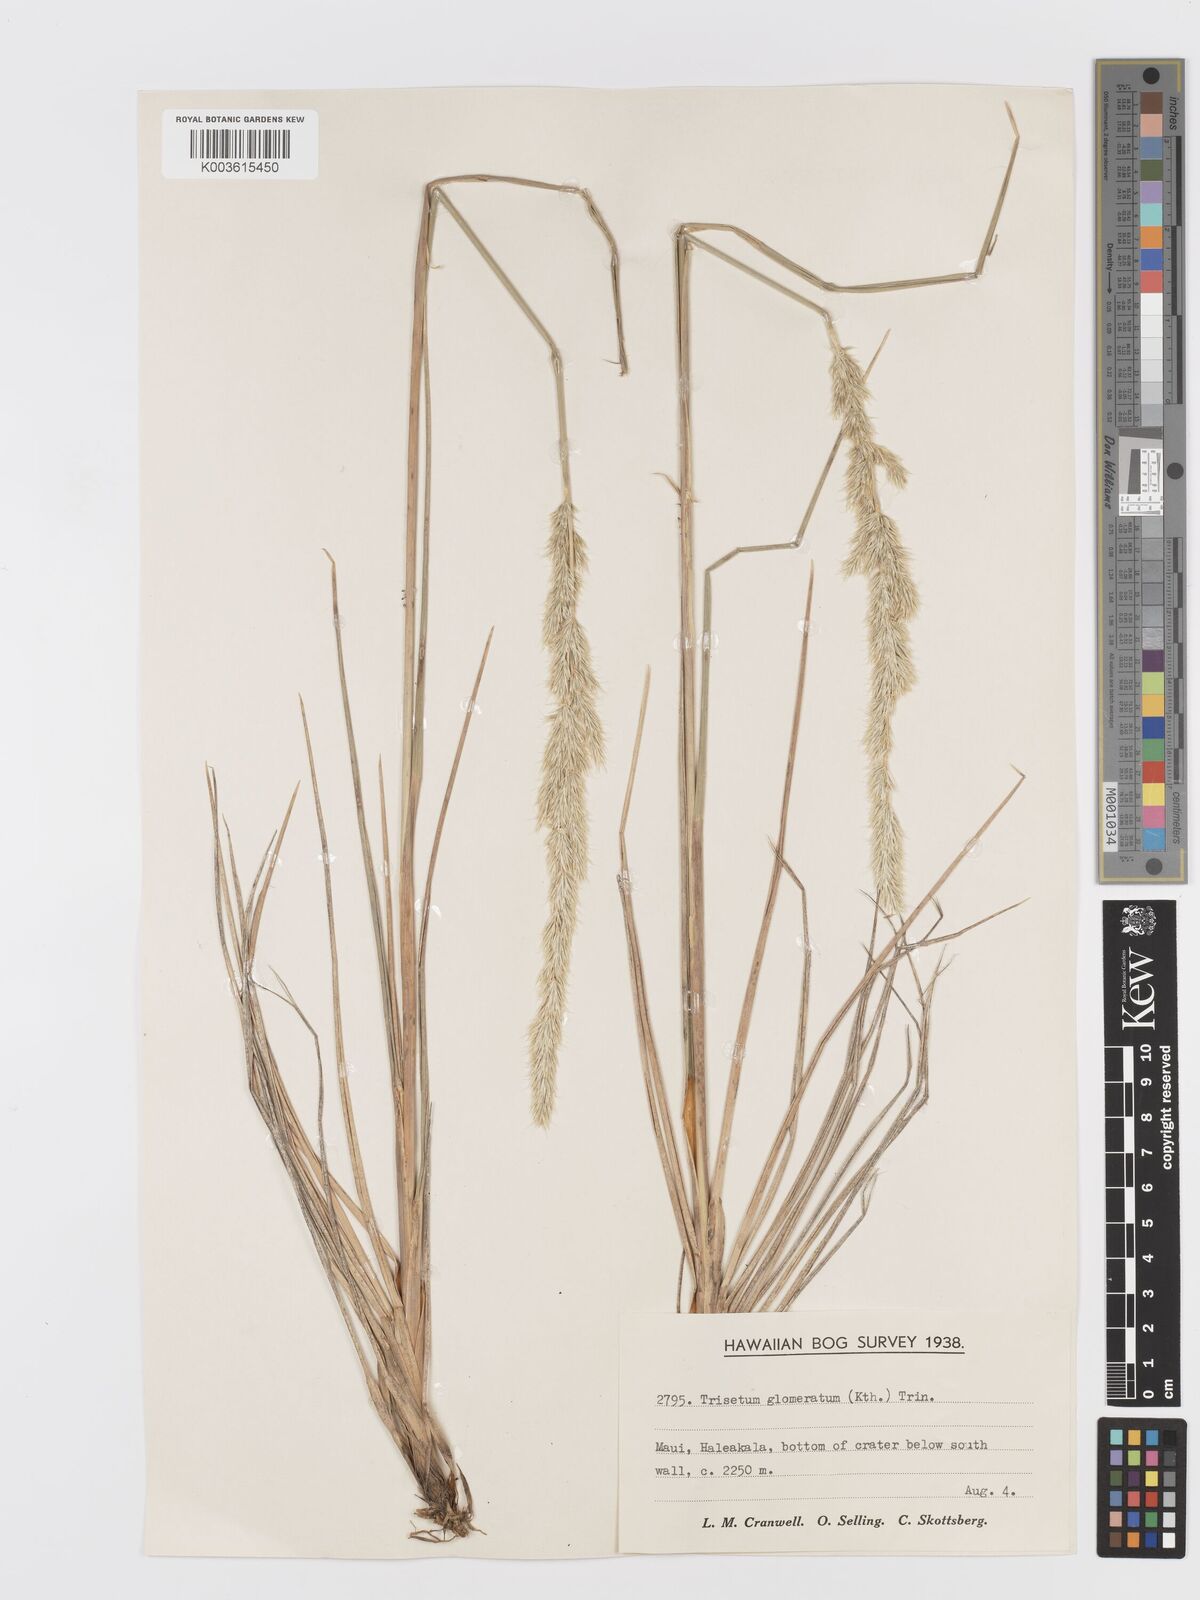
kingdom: Plantae
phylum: Tracheophyta
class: Liliopsida
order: Poales
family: Poaceae
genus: Trisetum
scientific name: Trisetum glomeratum
